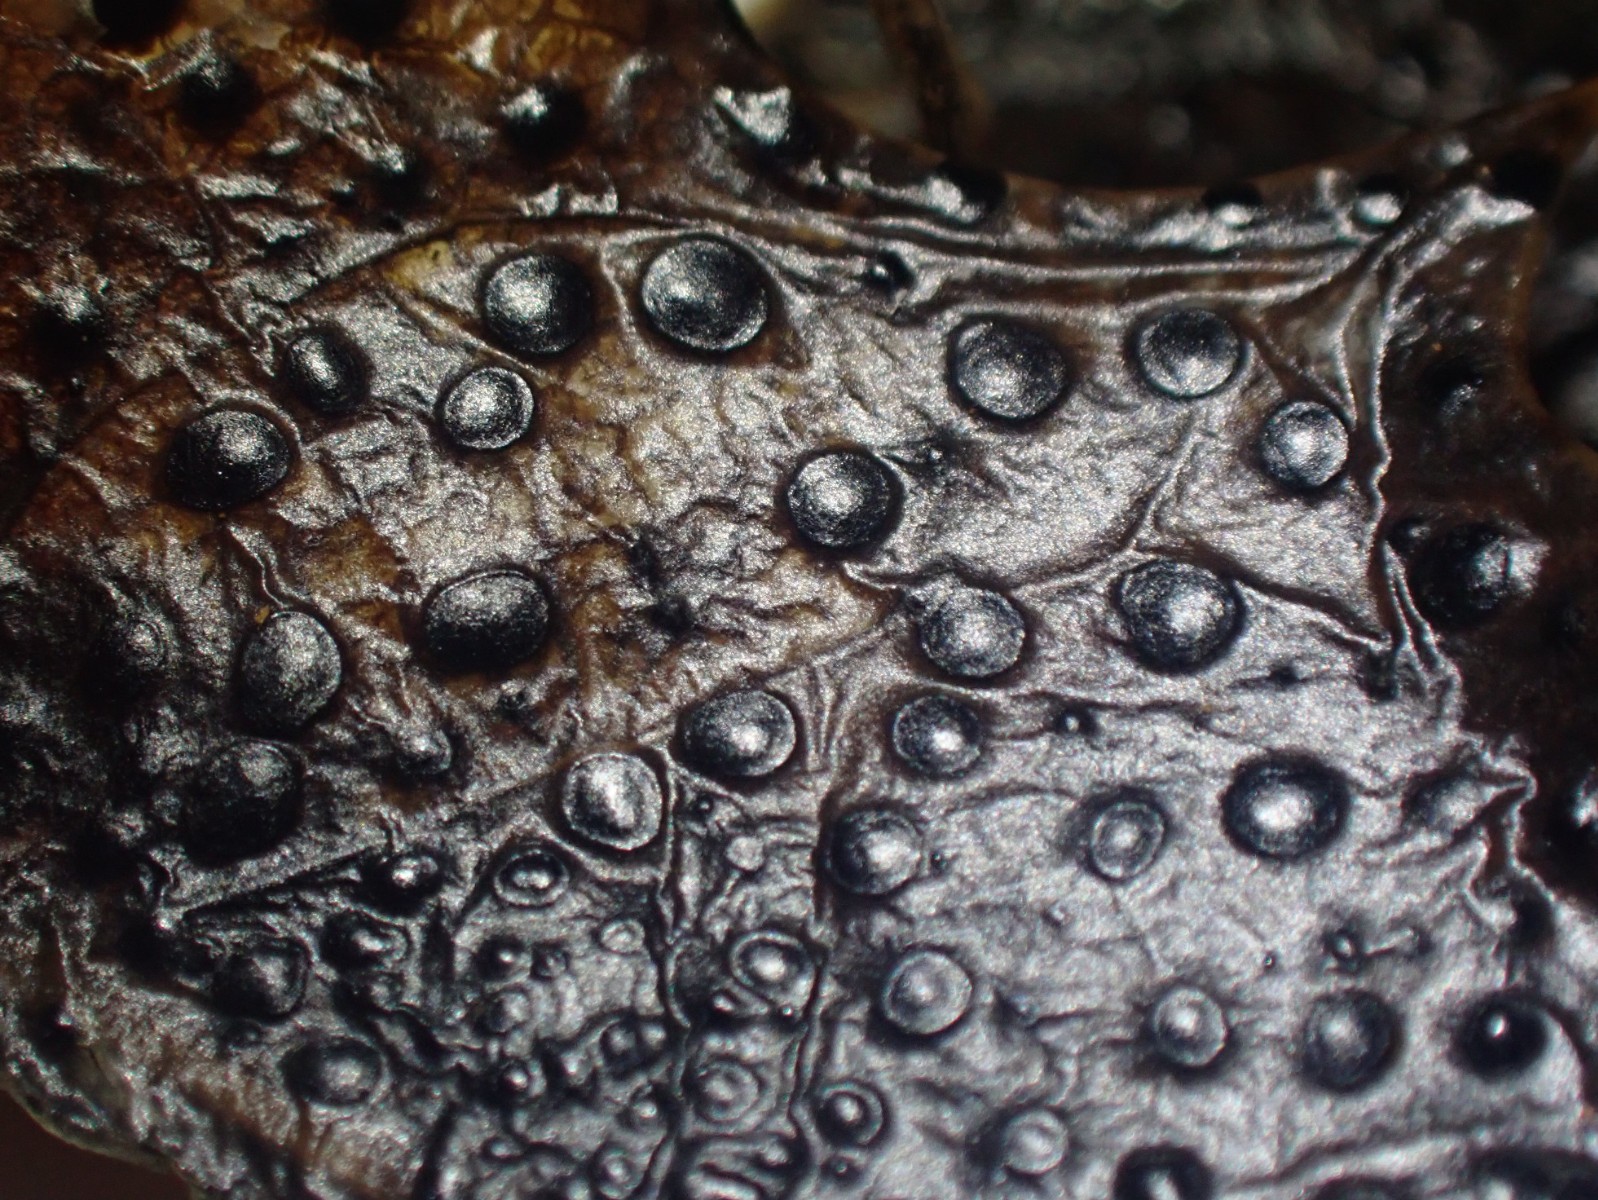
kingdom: Fungi
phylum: Ascomycota
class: Leotiomycetes
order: Helotiales
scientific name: Helotiales
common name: stilkskiveordenen
